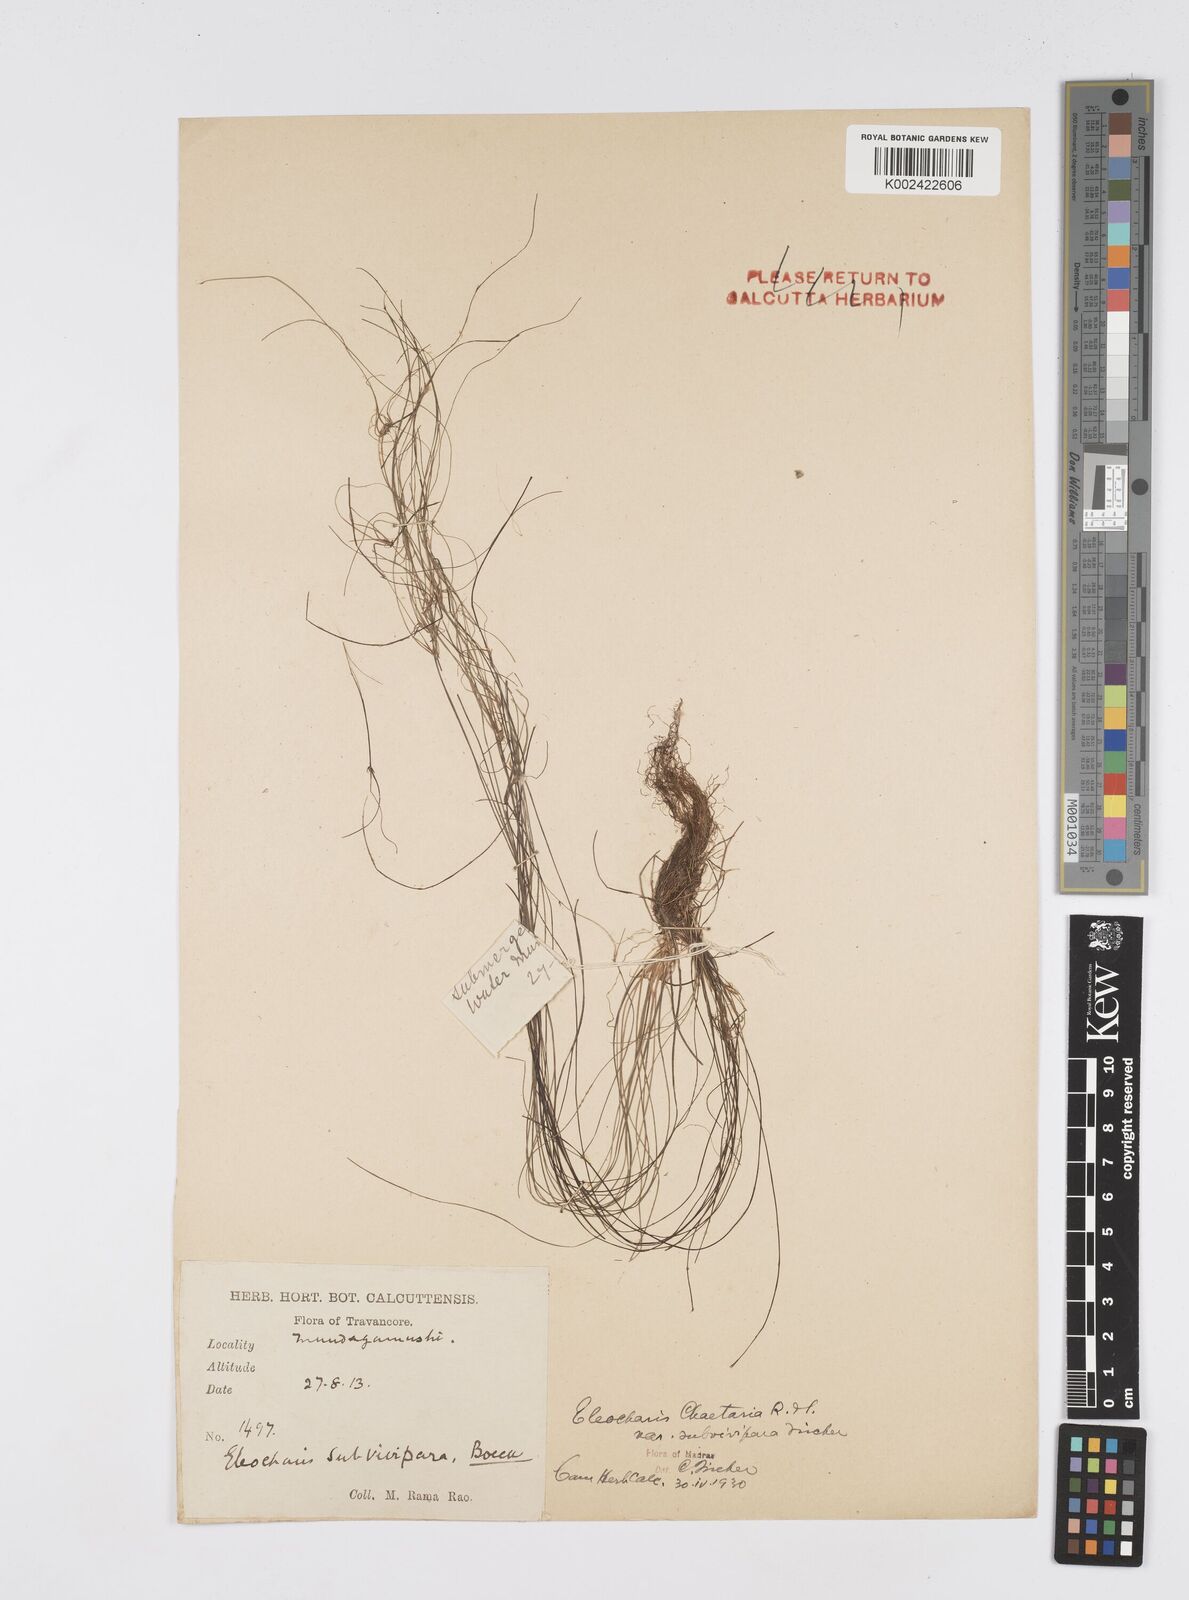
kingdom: Plantae
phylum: Tracheophyta
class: Liliopsida
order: Poales
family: Cyperaceae
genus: Eleocharis
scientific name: Eleocharis retroflexa
